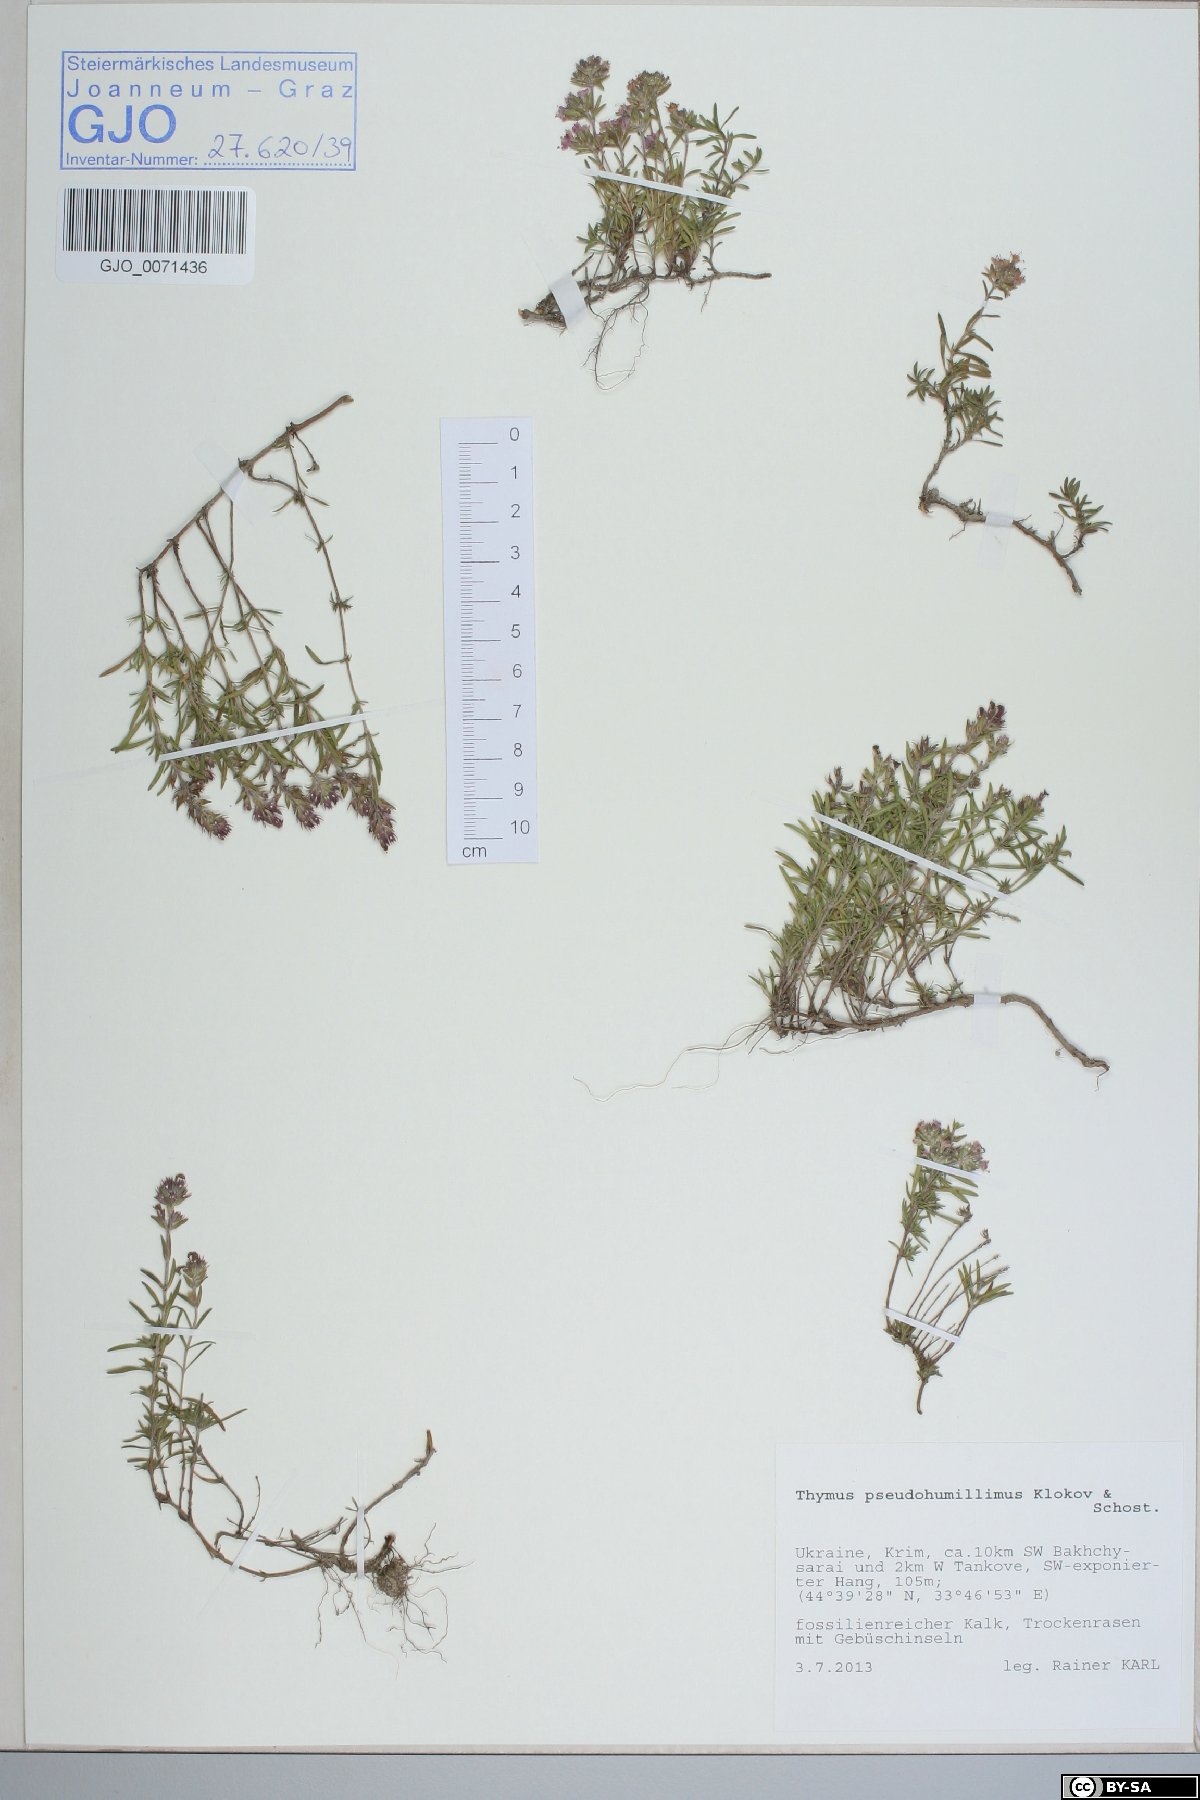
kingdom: Plantae
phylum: Tracheophyta
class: Magnoliopsida
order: Lamiales
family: Lamiaceae
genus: Thymus
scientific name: Thymus tauricus
